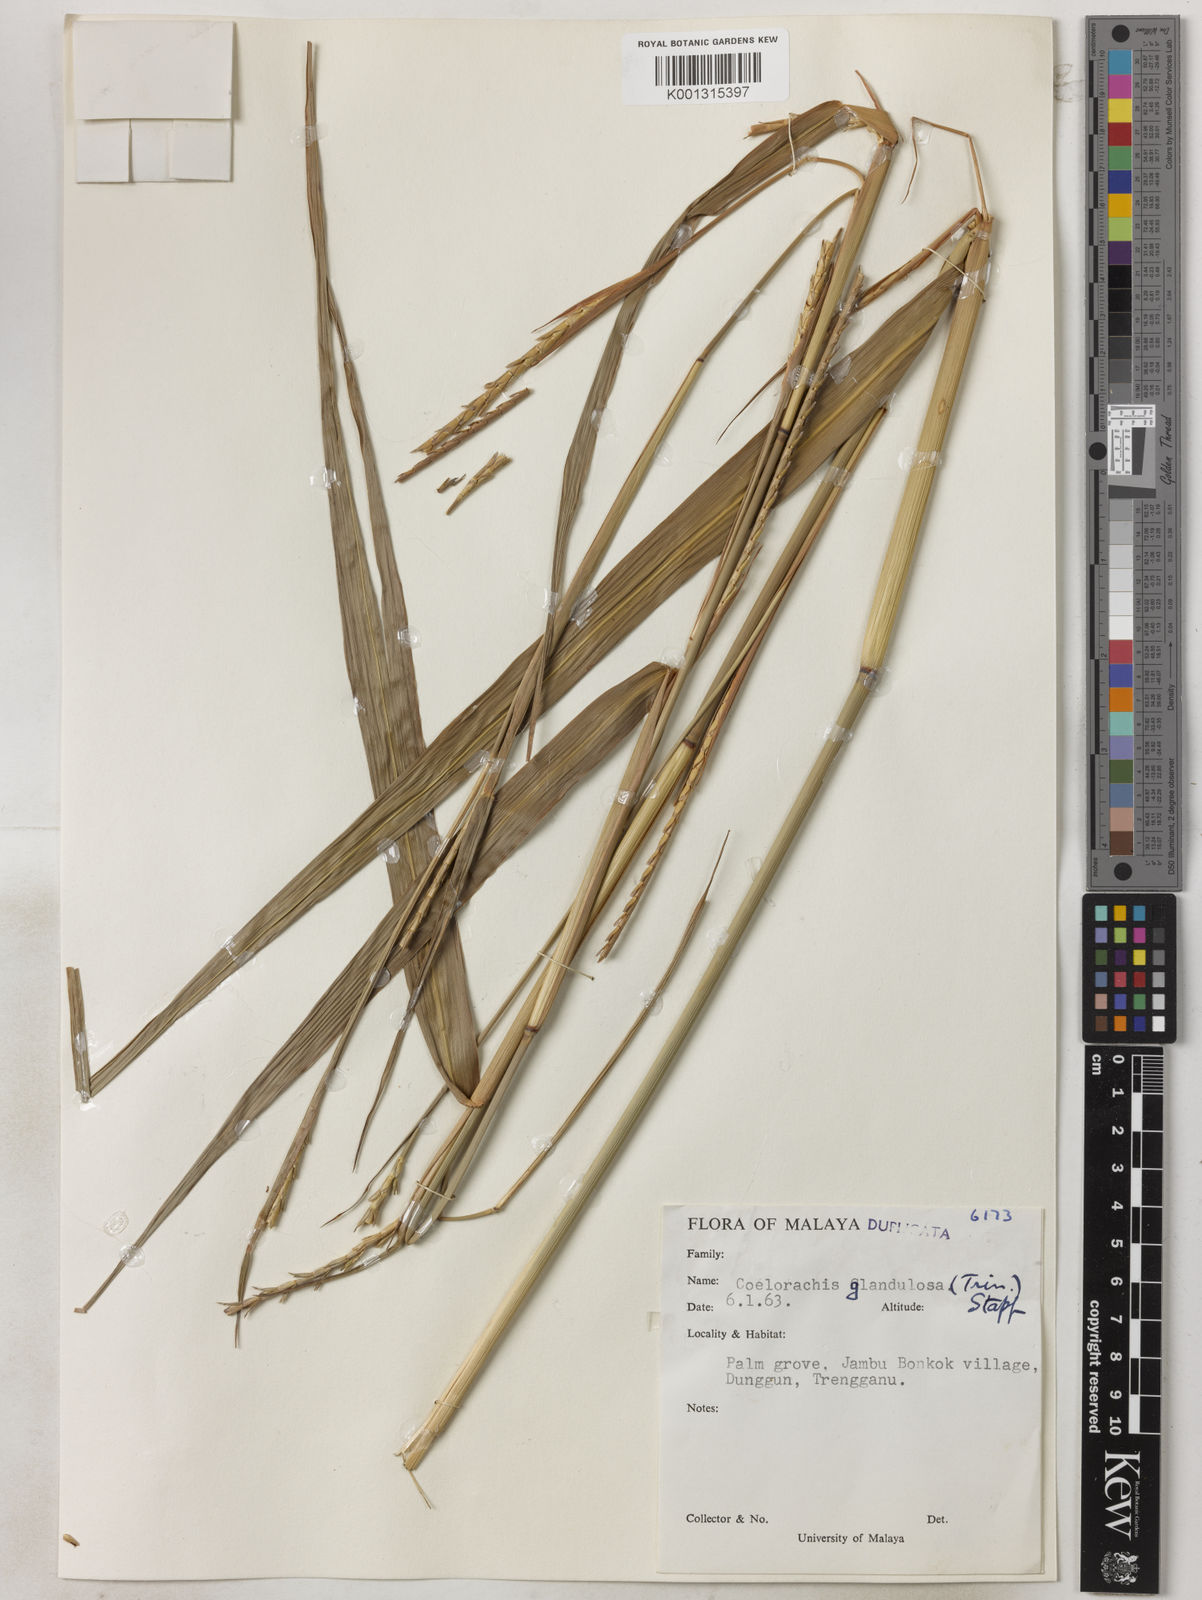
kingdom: Plantae
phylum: Tracheophyta
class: Liliopsida
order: Poales
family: Poaceae
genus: Rottboellia
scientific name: Rottboellia glandulosa
